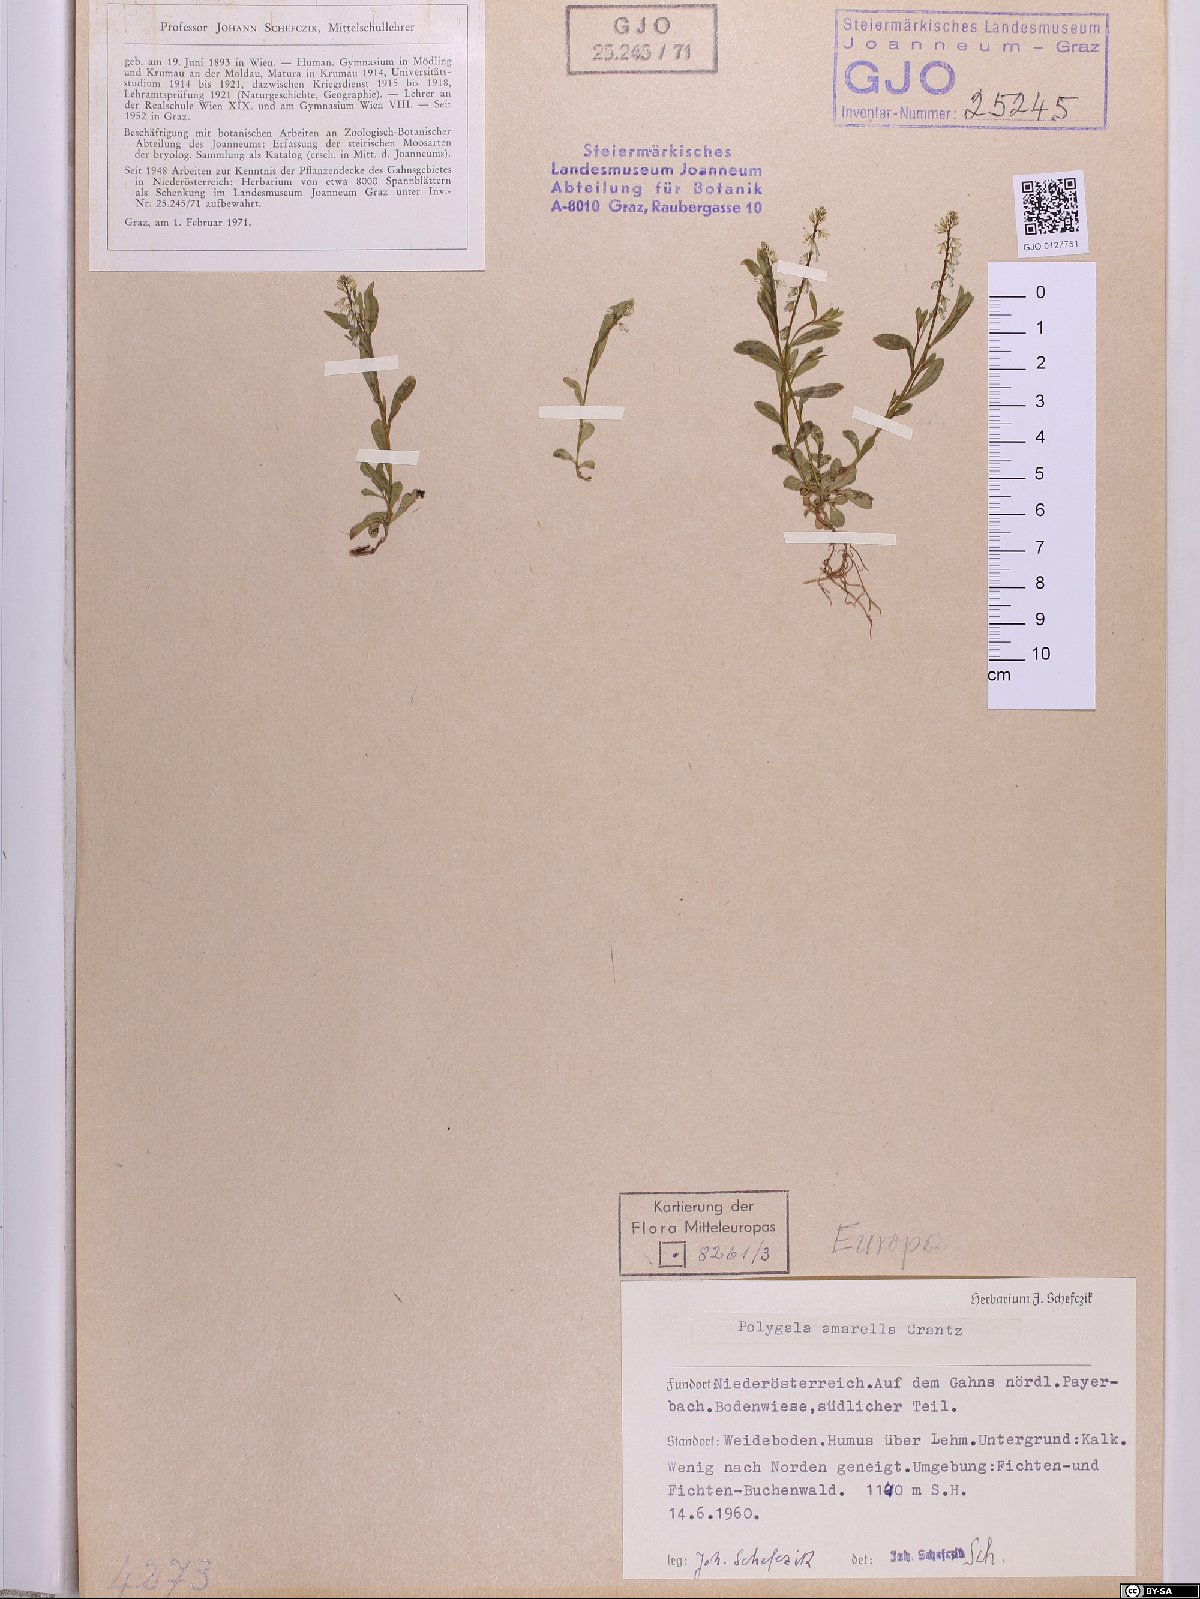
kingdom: Plantae
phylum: Tracheophyta
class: Magnoliopsida
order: Fabales
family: Polygalaceae
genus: Polygala
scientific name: Polygala amarella
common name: Dwarf milkwort
